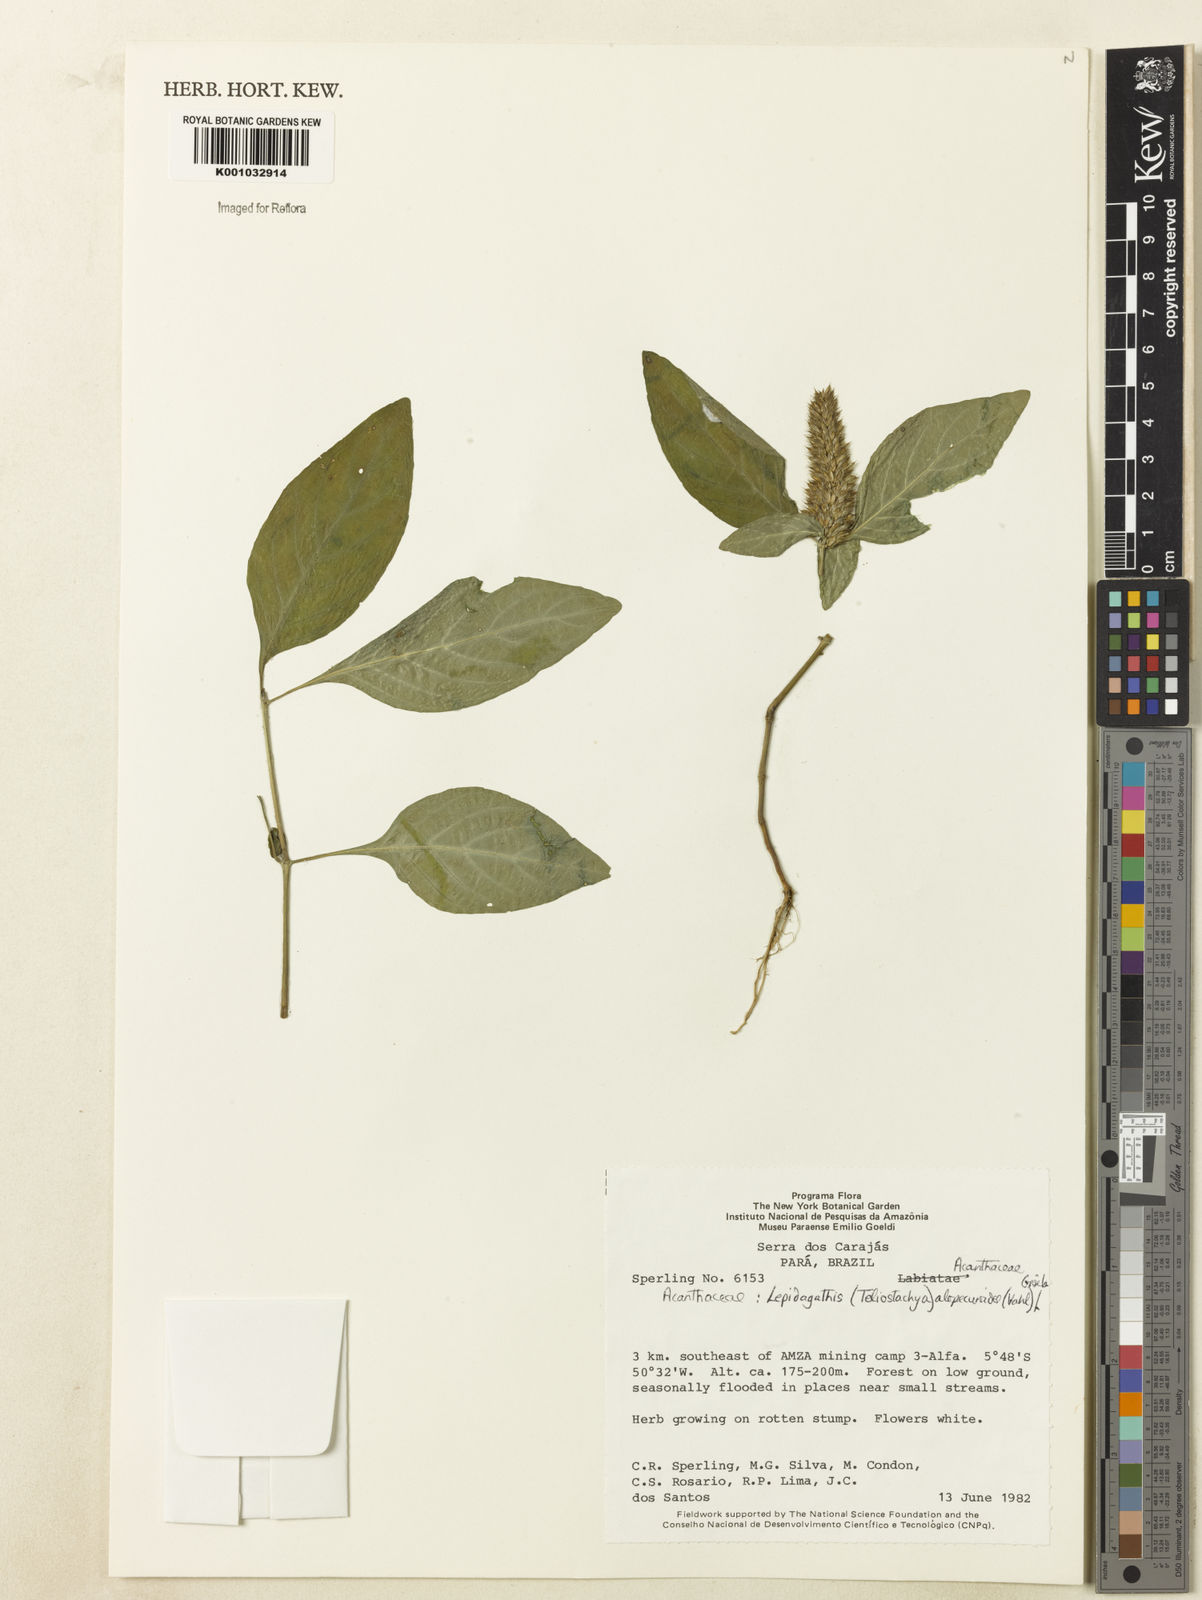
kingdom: Plantae
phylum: Tracheophyta
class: Magnoliopsida
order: Lamiales
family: Acanthaceae
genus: Lepidagathis
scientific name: Lepidagathis alopecuroidea
